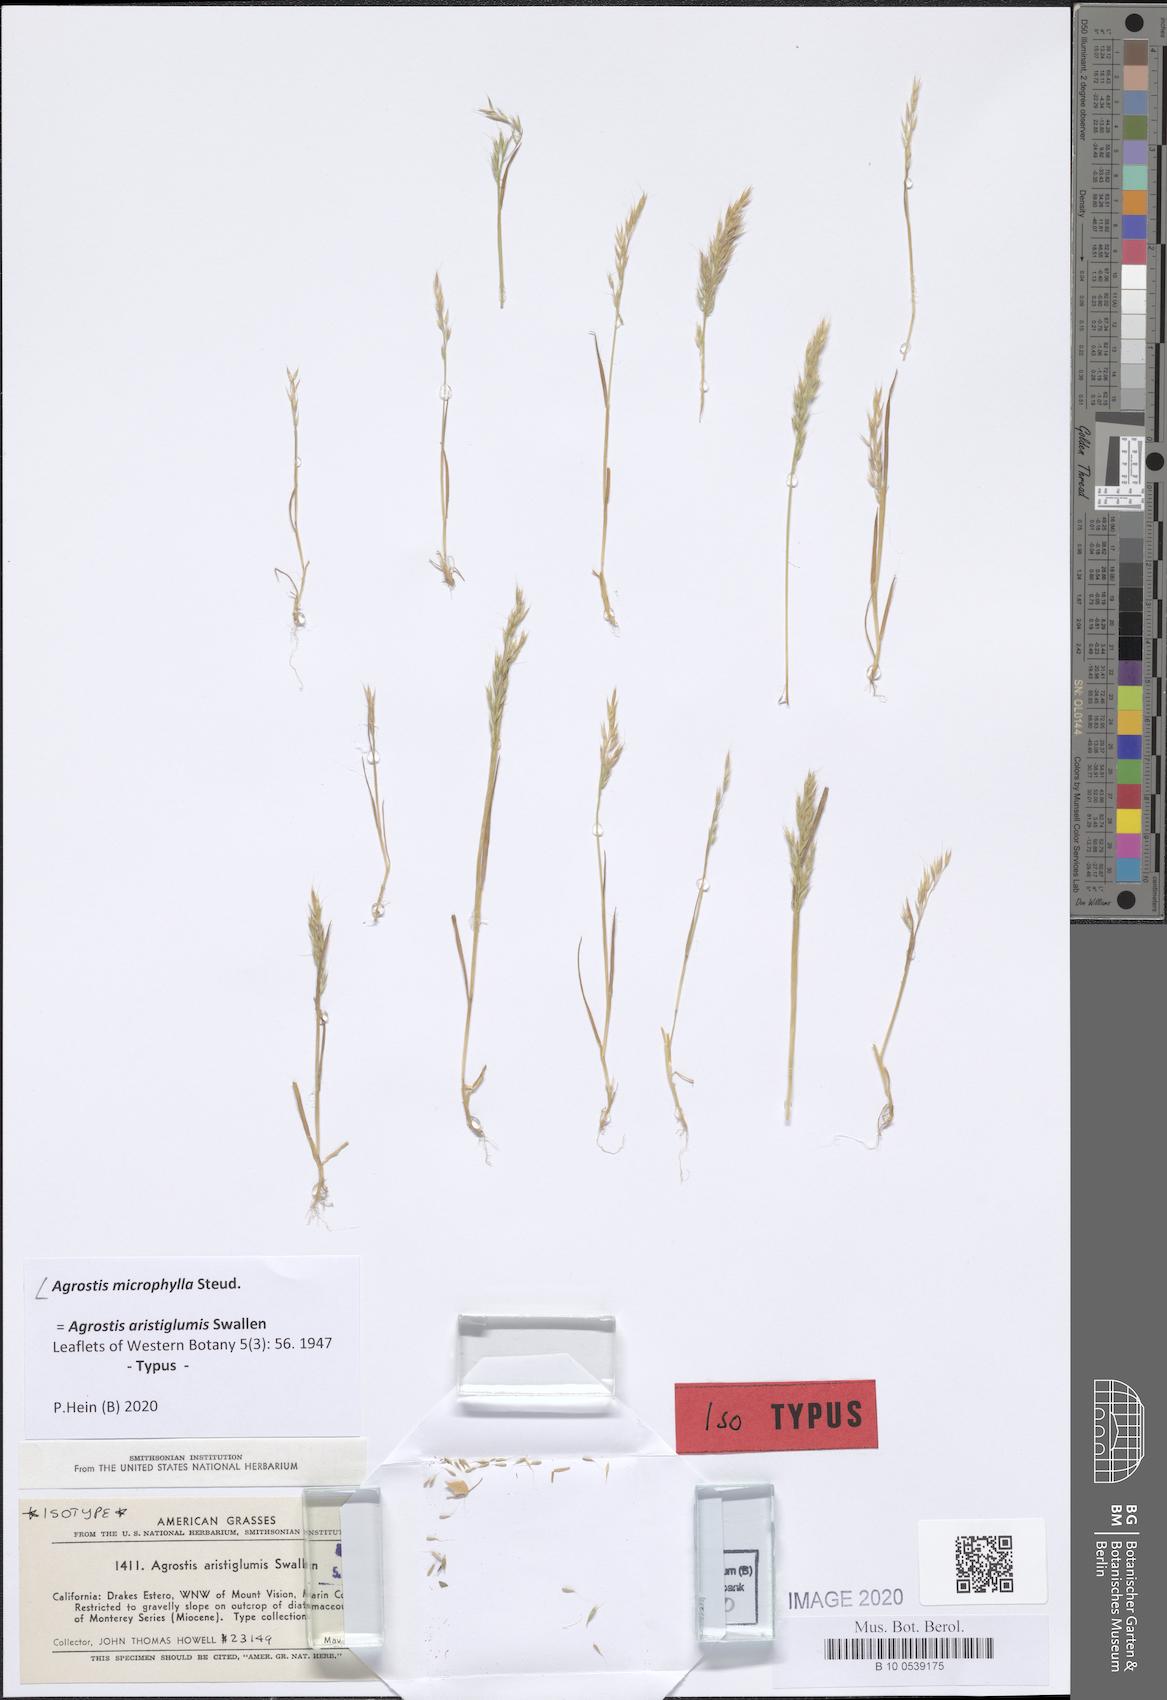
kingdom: Plantae
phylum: Tracheophyta
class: Liliopsida
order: Poales
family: Poaceae
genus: Agrostis
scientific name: Agrostis microphylla
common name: Small-leaf bent
